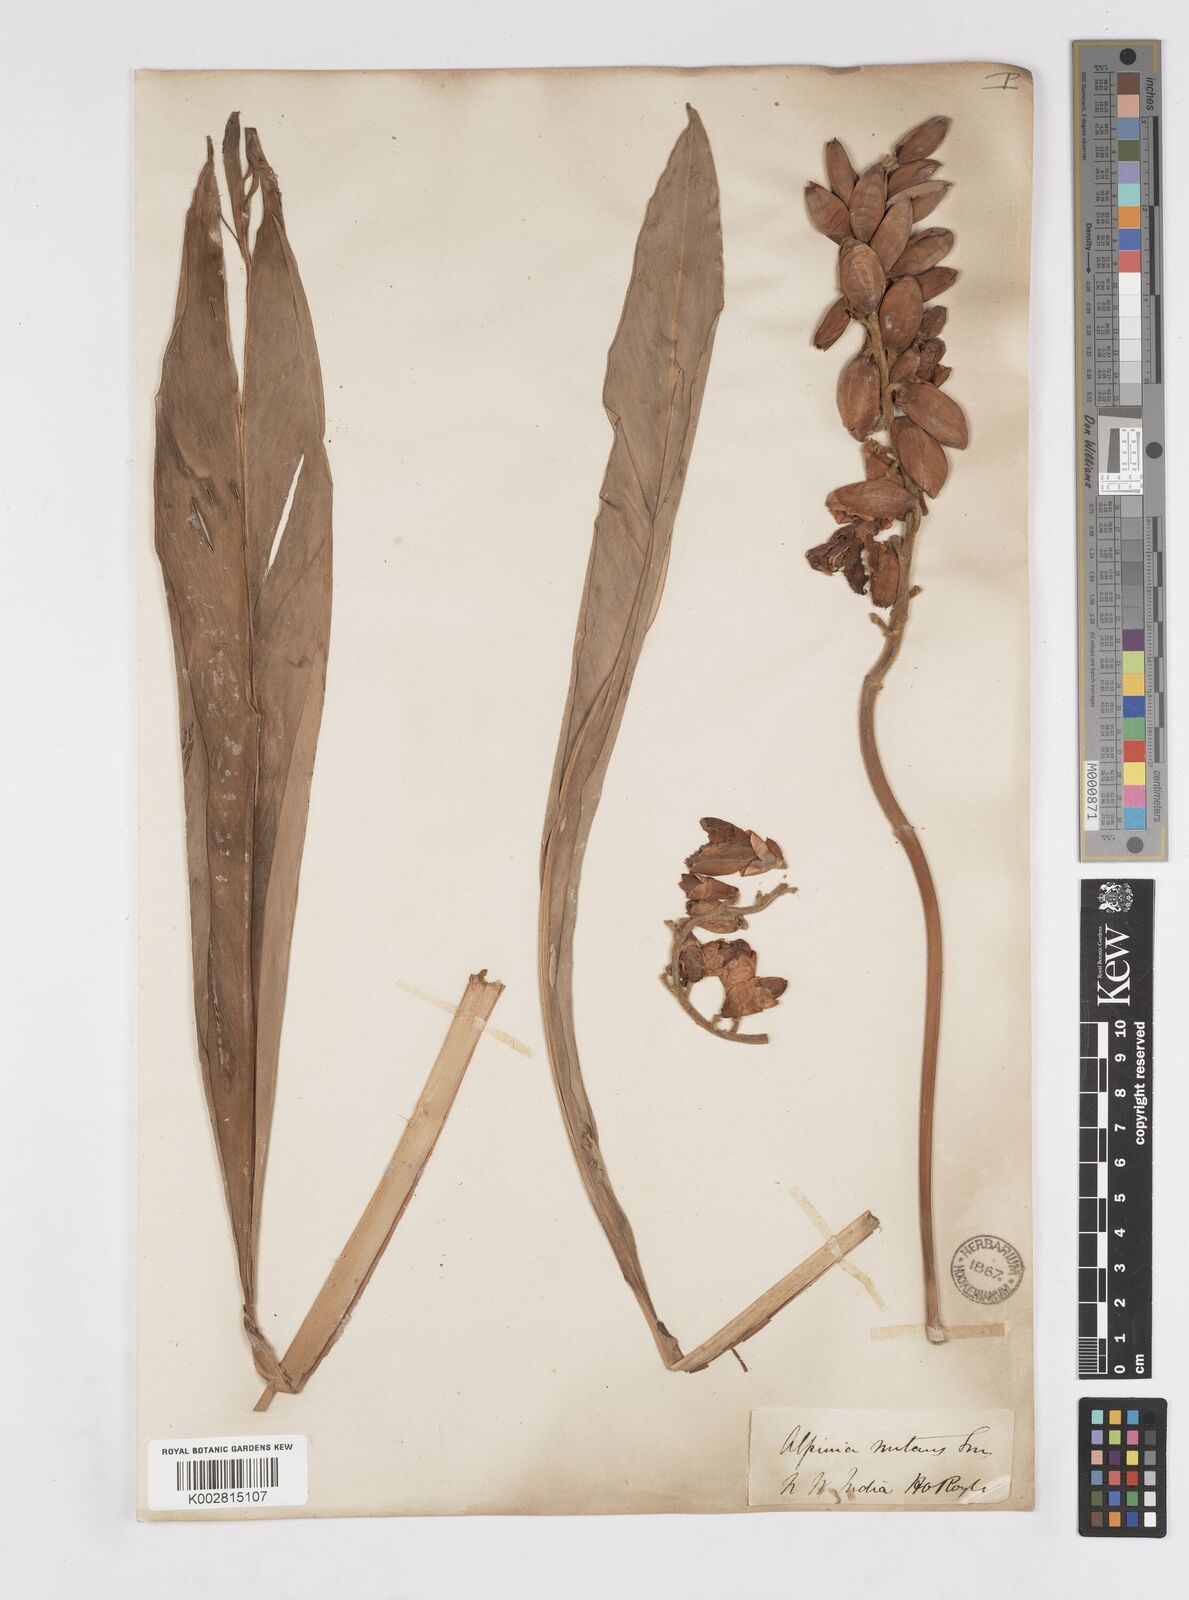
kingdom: Plantae
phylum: Tracheophyta
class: Liliopsida
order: Zingiberales
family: Zingiberaceae
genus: Alpinia
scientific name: Alpinia zerumbet
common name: Shellplant
